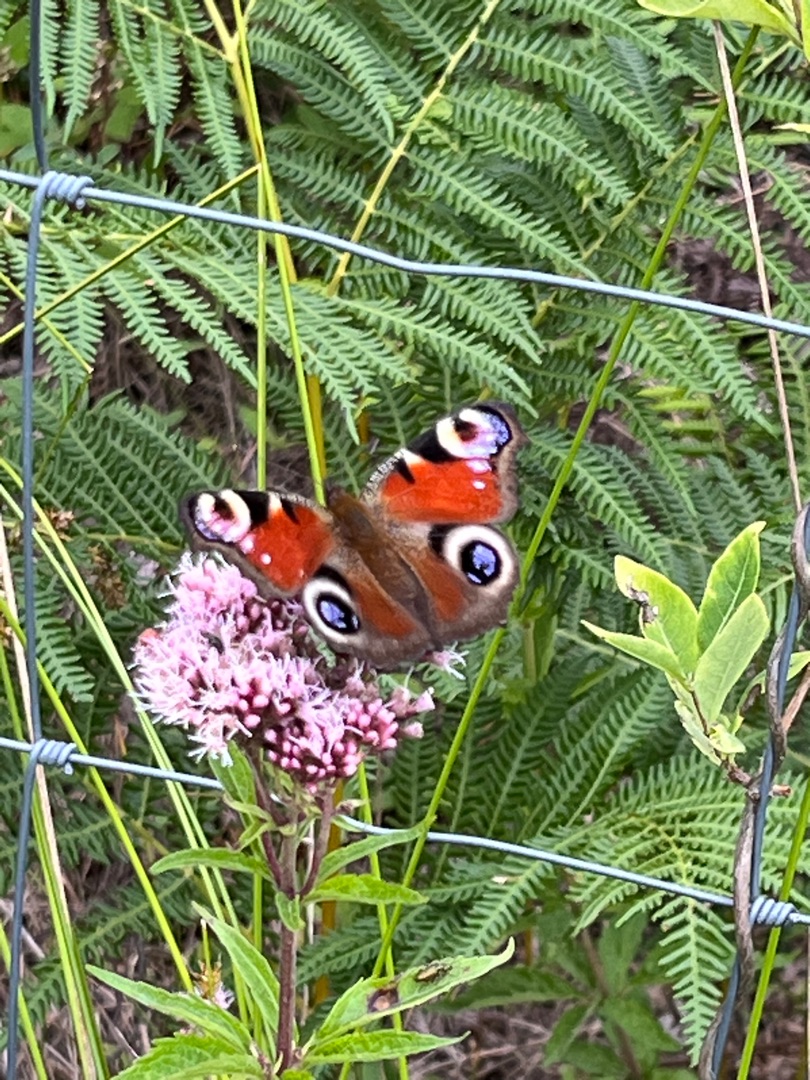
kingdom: Animalia
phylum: Arthropoda
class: Insecta
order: Lepidoptera
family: Nymphalidae
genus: Aglais
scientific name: Aglais io
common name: Dagpåfugleøje
